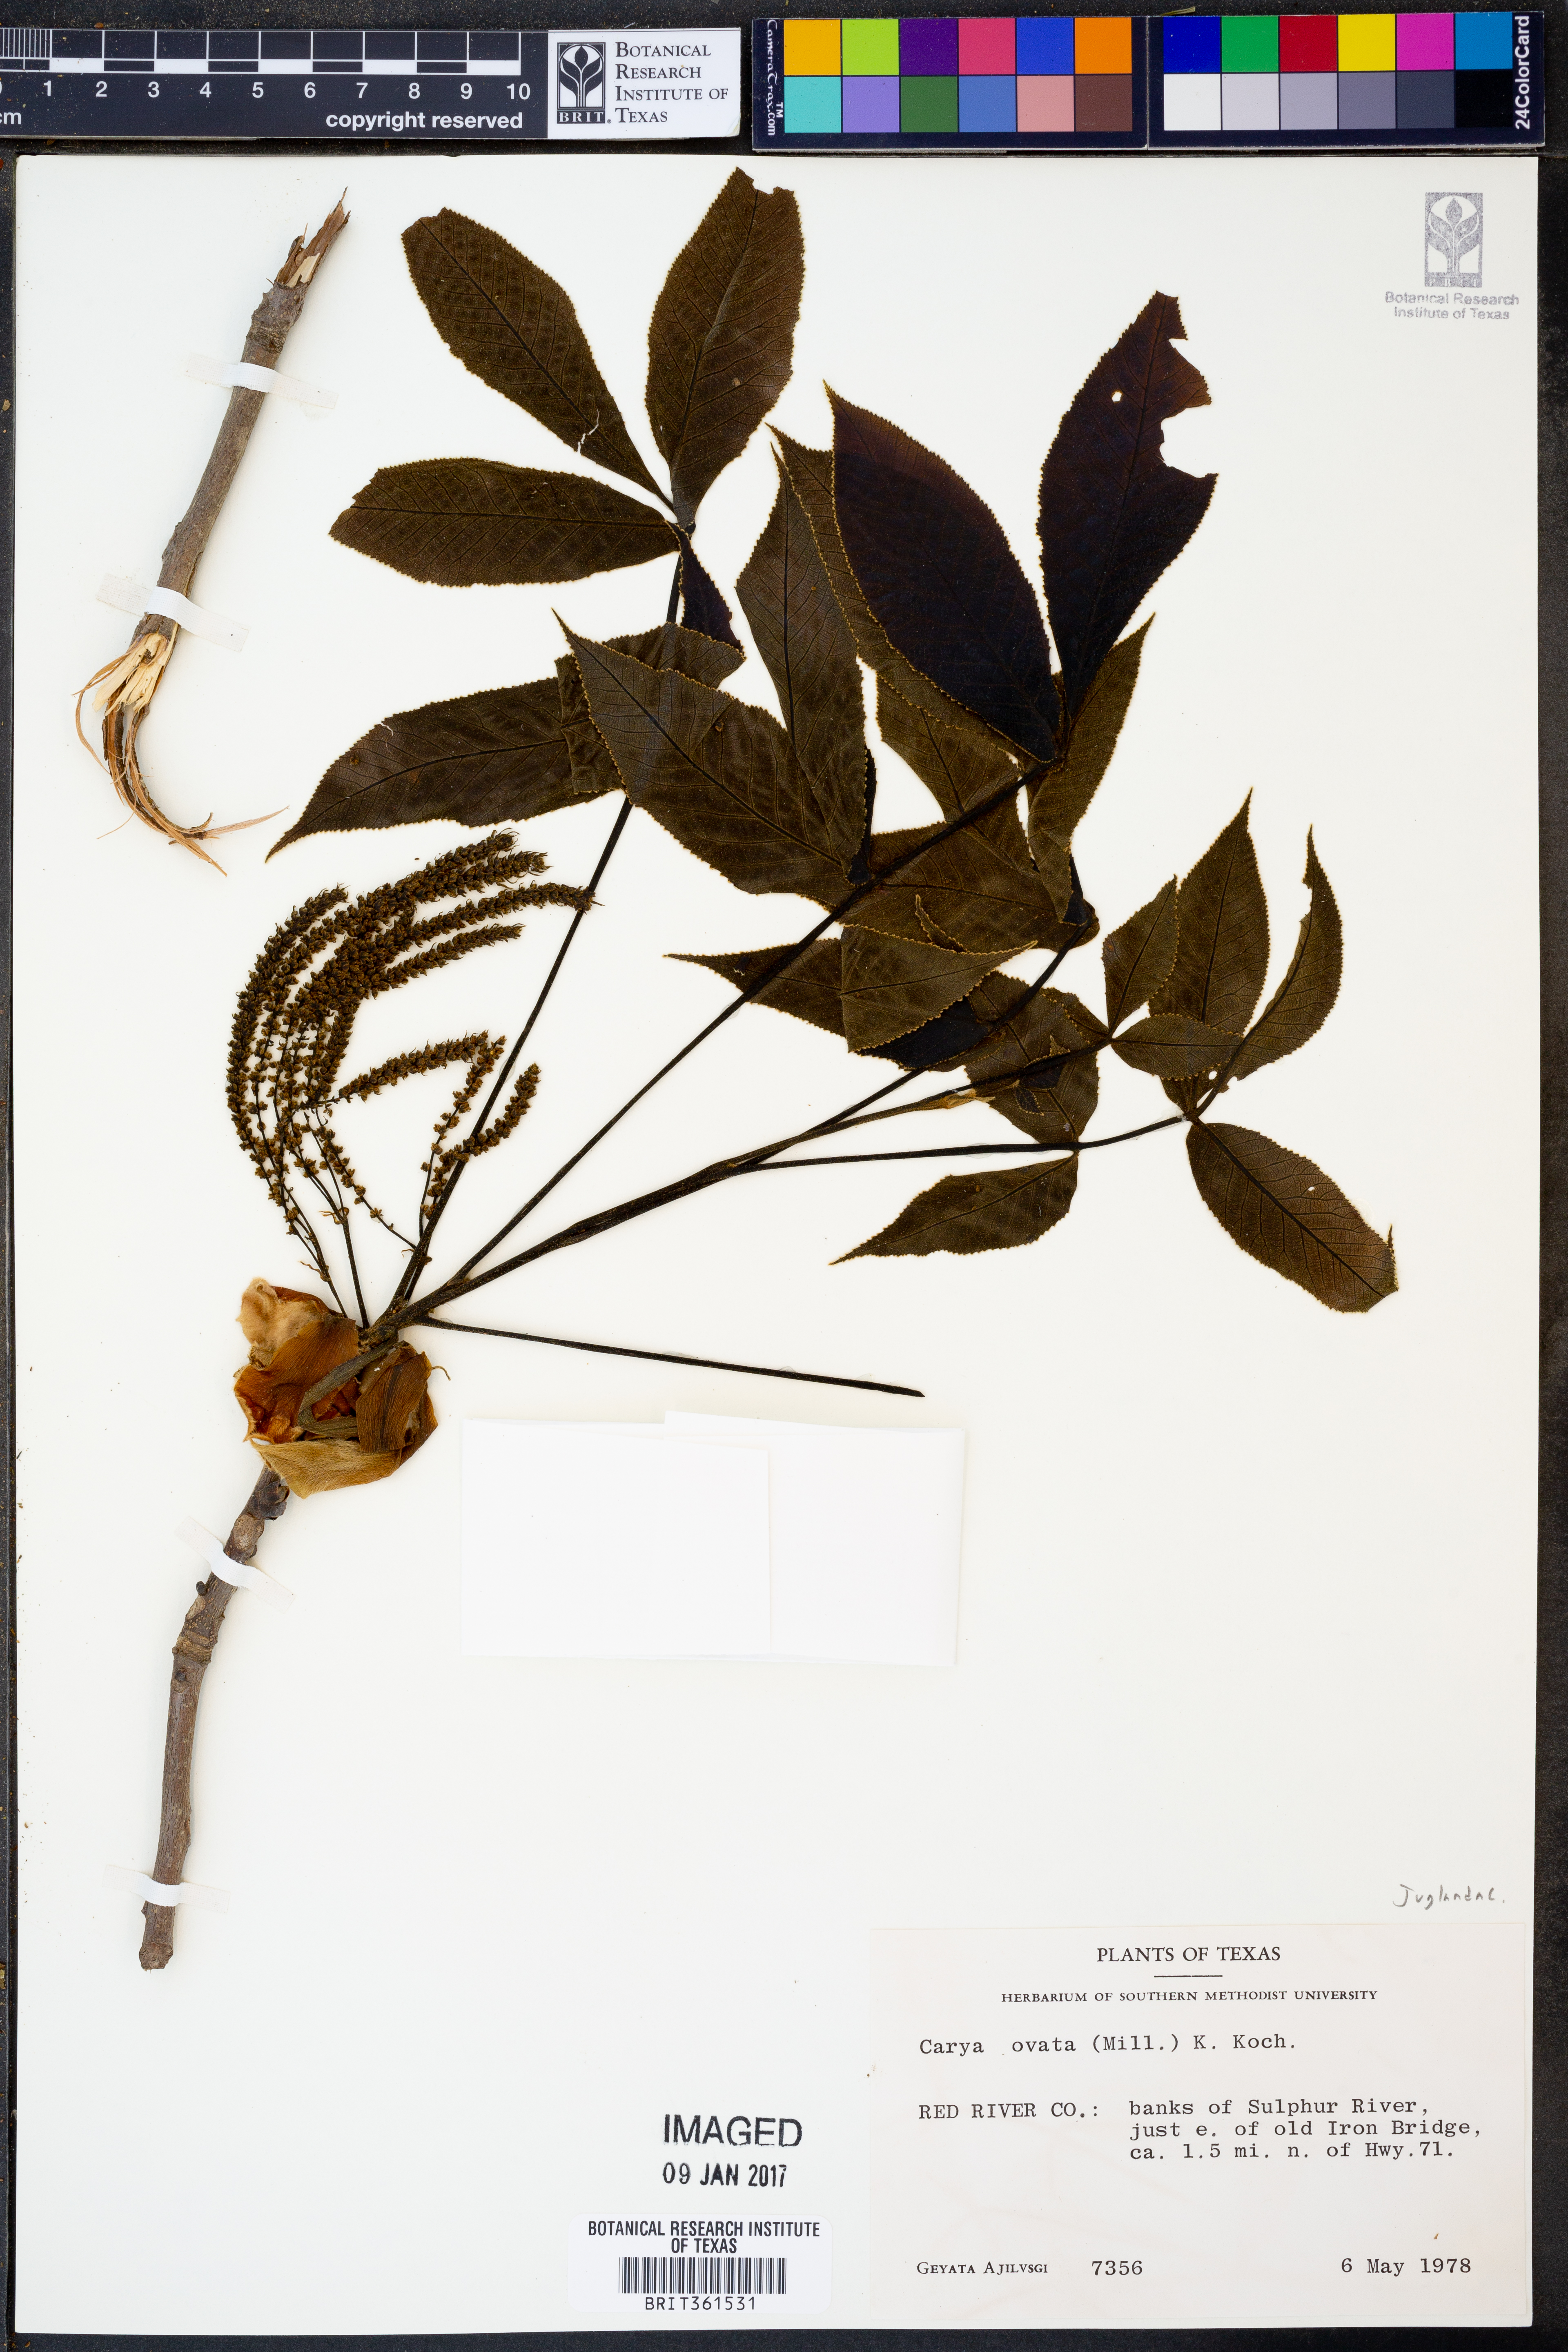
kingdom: Plantae
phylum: Tracheophyta
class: Magnoliopsida
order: Fagales
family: Juglandaceae
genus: Carya
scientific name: Carya ovata
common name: Shagbark hickory
